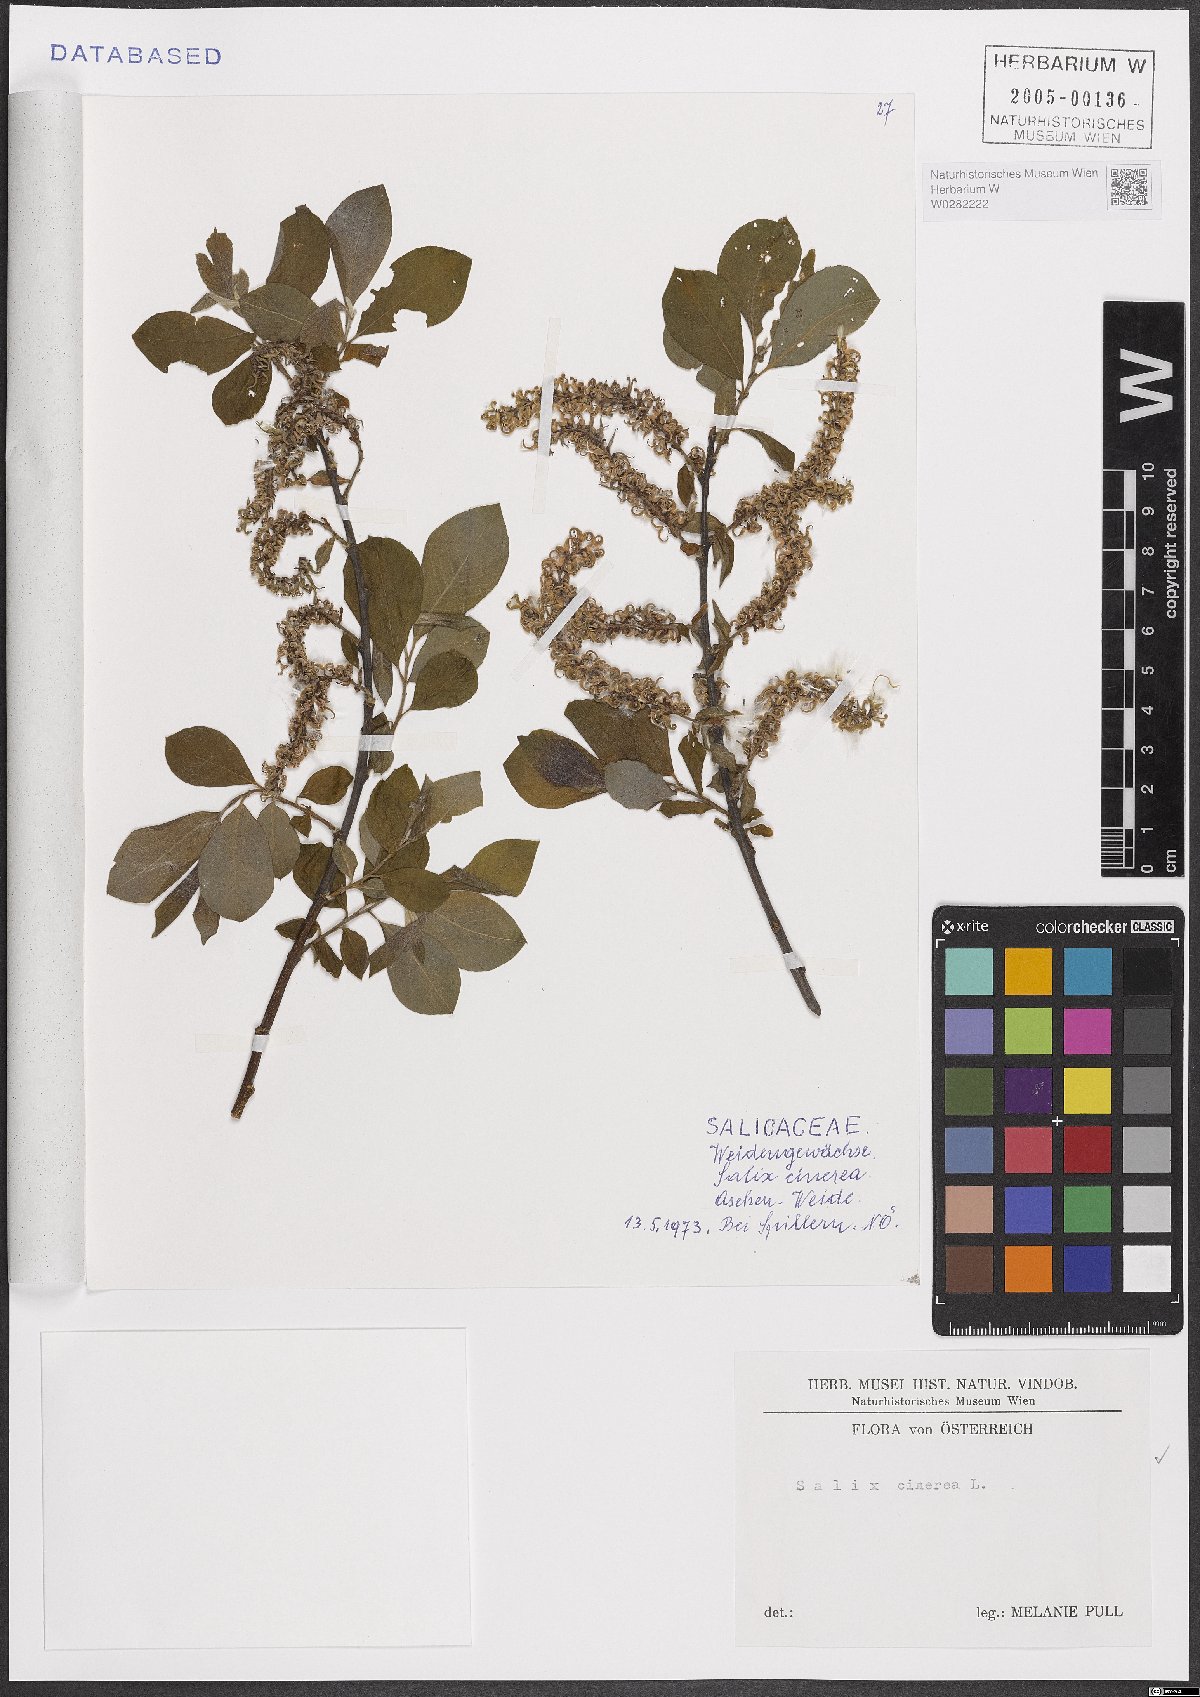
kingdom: Plantae
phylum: Tracheophyta
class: Magnoliopsida
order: Malpighiales
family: Salicaceae
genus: Salix
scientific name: Salix cinerea
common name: Common sallow
